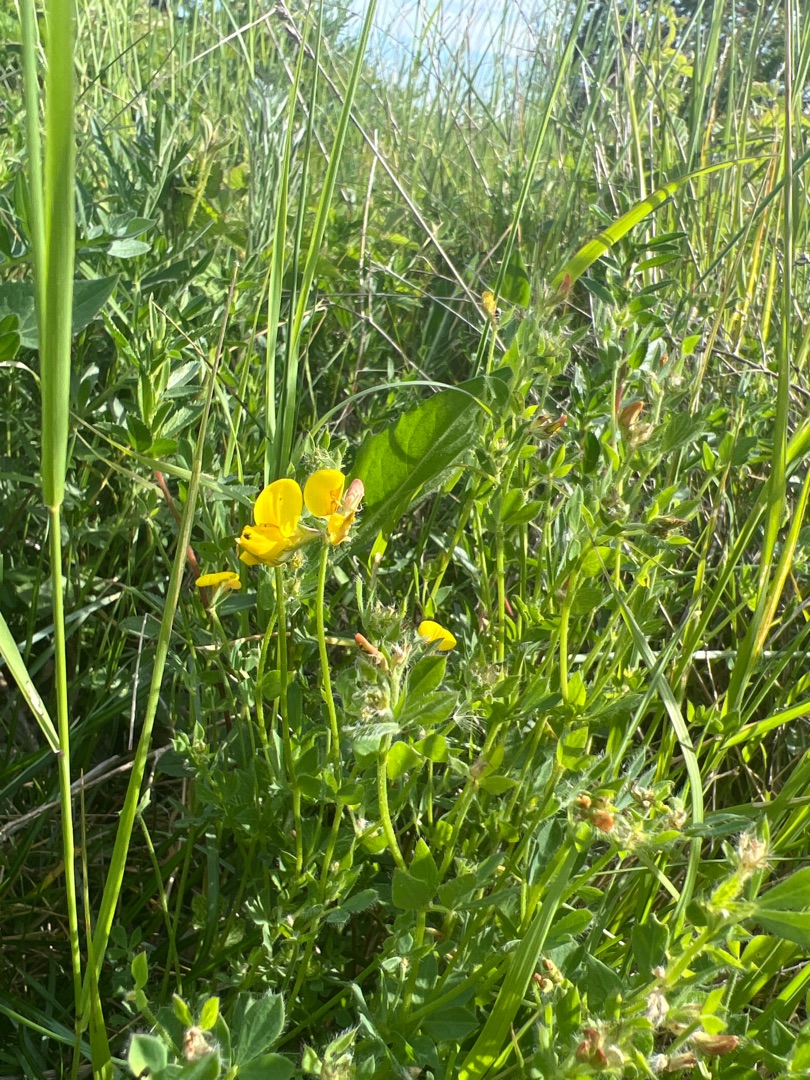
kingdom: Plantae
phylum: Tracheophyta
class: Magnoliopsida
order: Fabales
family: Fabaceae
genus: Lotus
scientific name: Lotus corniculatus
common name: Almindelig kællingetand
